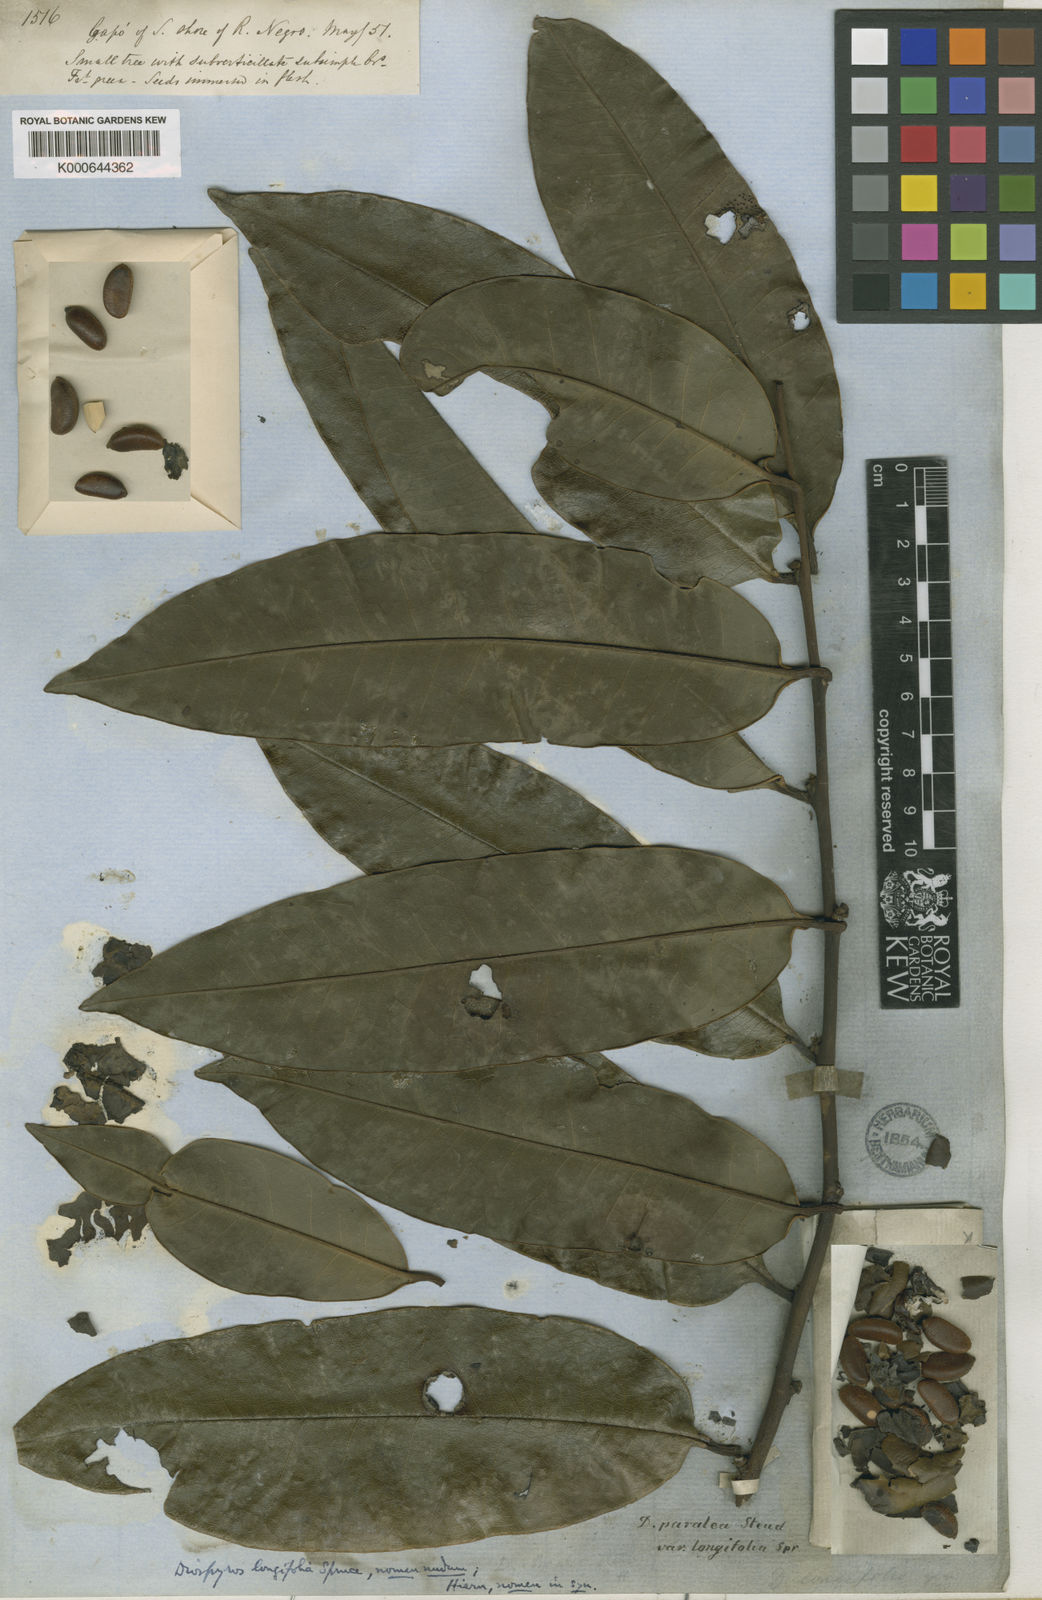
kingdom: Plantae
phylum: Tracheophyta
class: Magnoliopsida
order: Ericales
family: Ebenaceae
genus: Diospyros
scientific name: Diospyros
